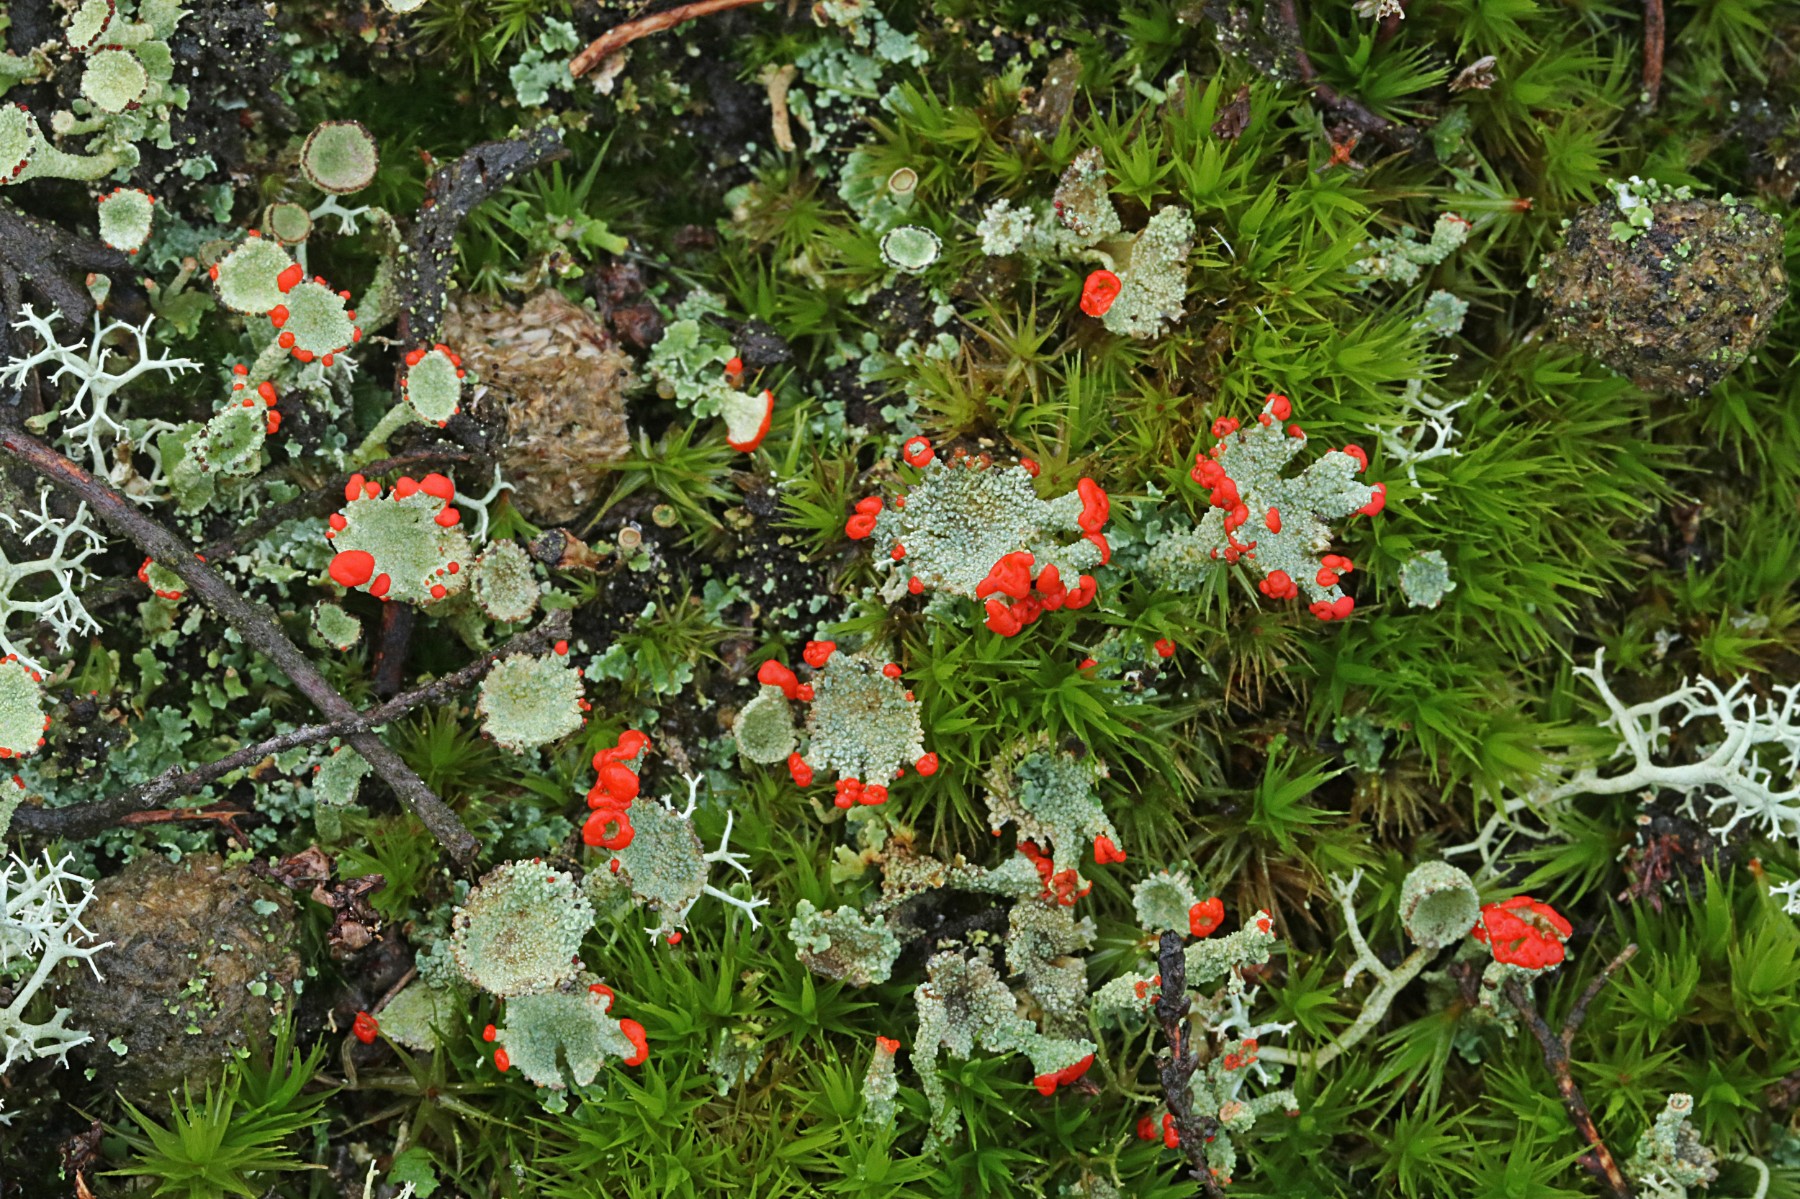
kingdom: Fungi
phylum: Ascomycota
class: Lecanoromycetes
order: Lecanorales
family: Cladoniaceae
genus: Cladonia
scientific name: Cladonia diversa
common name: rød bægerlav
